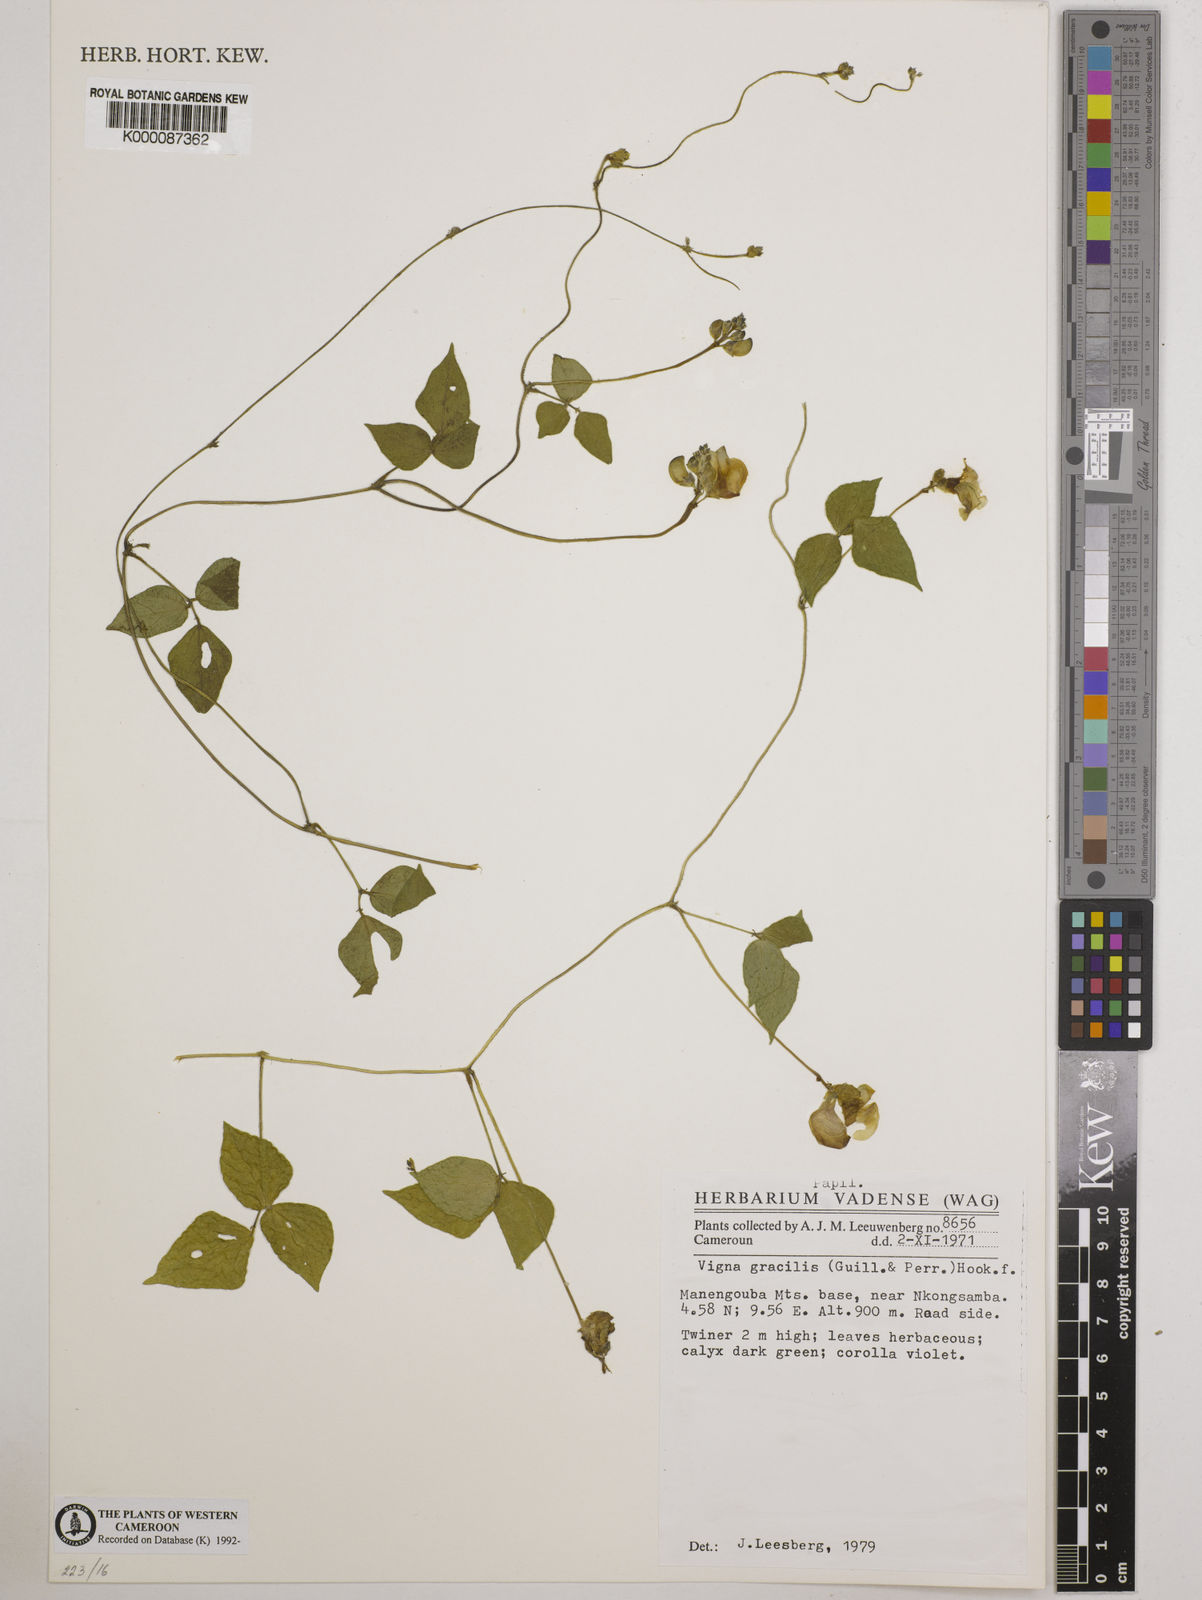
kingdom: Plantae
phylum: Tracheophyta
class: Magnoliopsida
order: Fabales
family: Fabaceae
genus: Vigna
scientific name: Vigna gracilis
